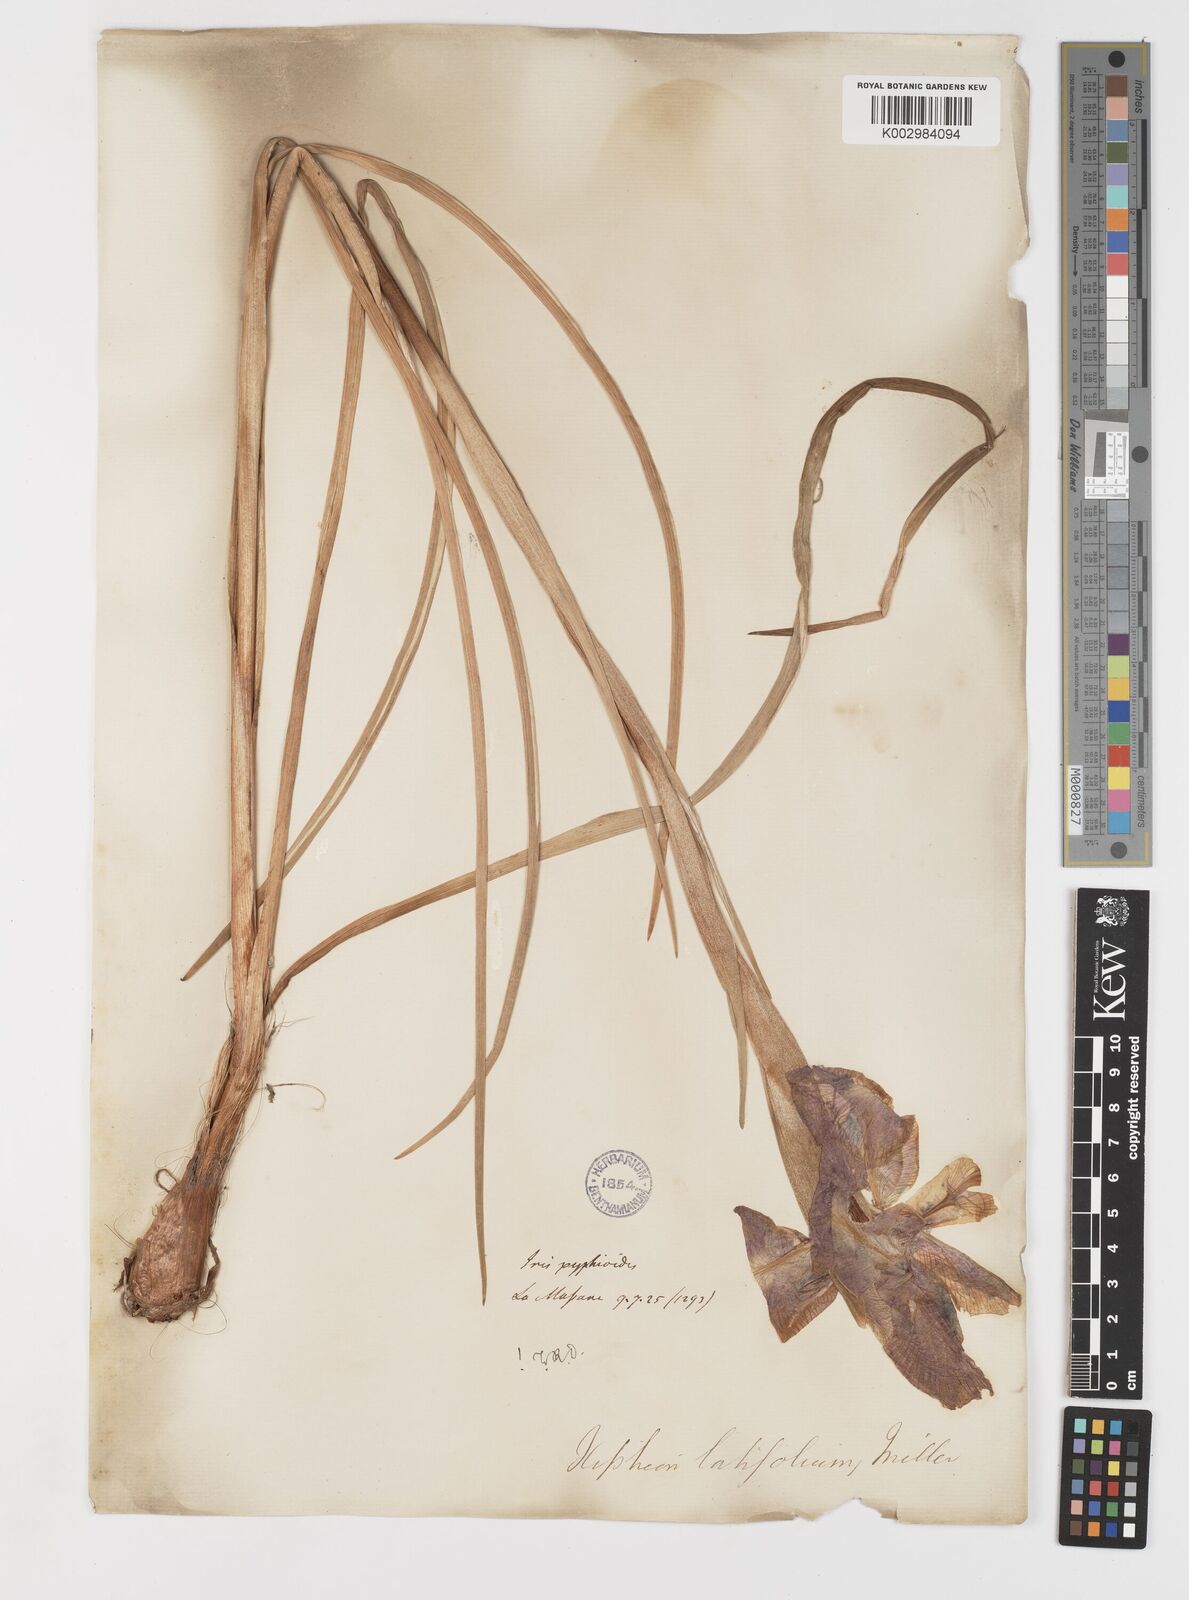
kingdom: Plantae
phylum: Tracheophyta
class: Liliopsida
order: Asparagales
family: Iridaceae
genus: Iris
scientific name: Iris jacquinii
